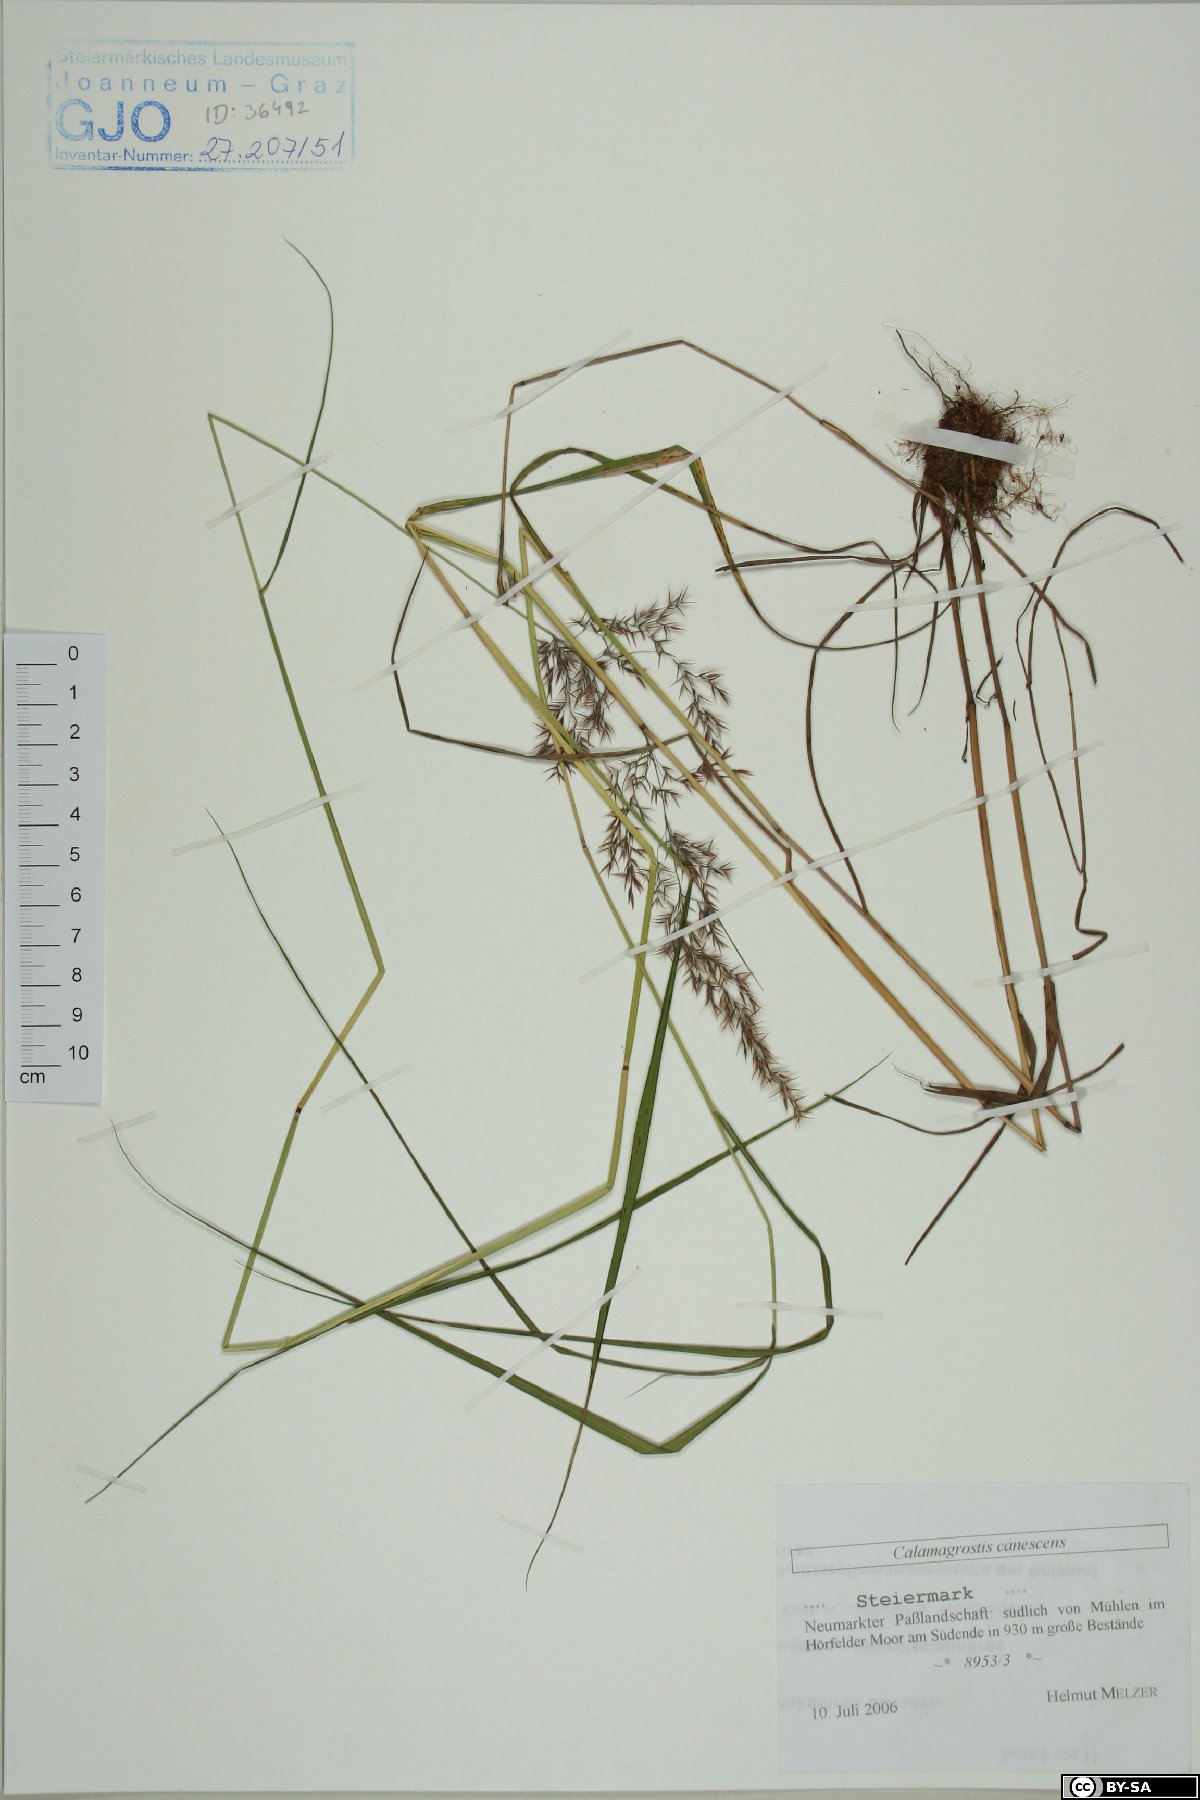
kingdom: Plantae
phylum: Tracheophyta
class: Liliopsida
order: Poales
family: Poaceae
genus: Calamagrostis
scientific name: Calamagrostis canescens
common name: Purple small-reed
